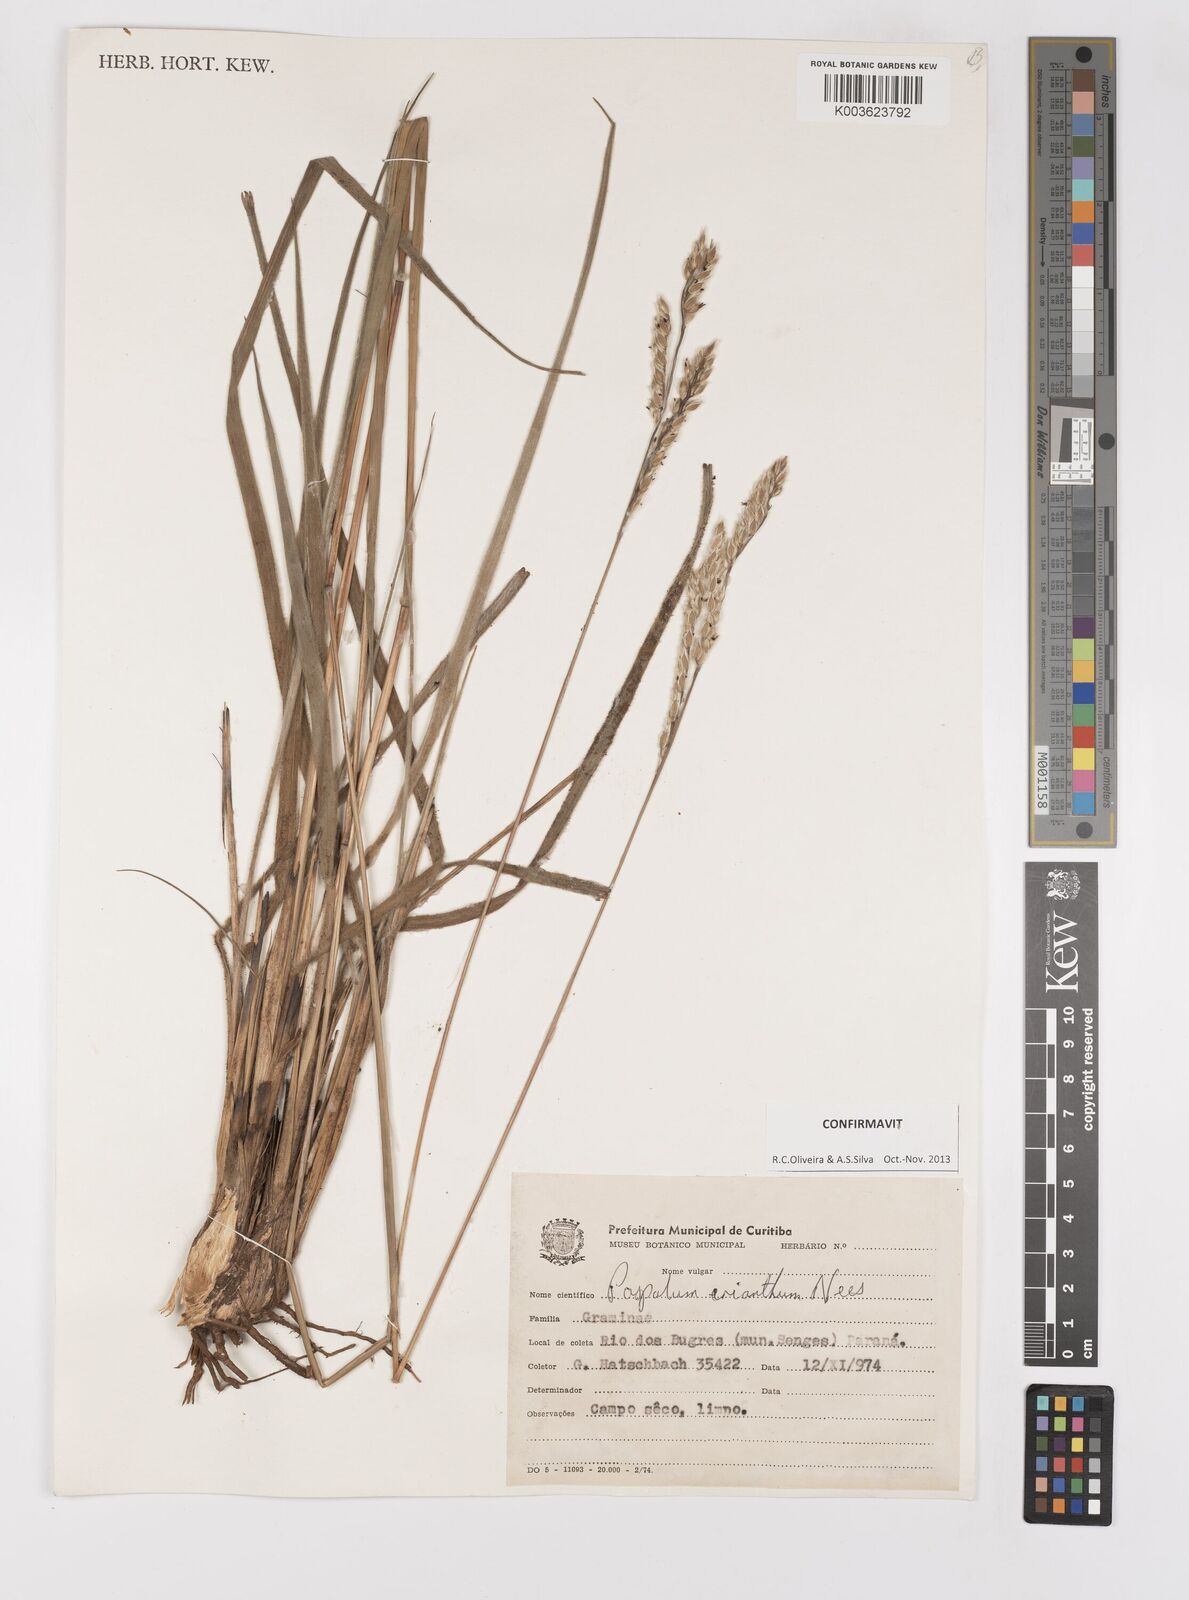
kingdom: Plantae
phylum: Tracheophyta
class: Liliopsida
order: Poales
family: Poaceae
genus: Paspalum
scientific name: Paspalum erianthum
